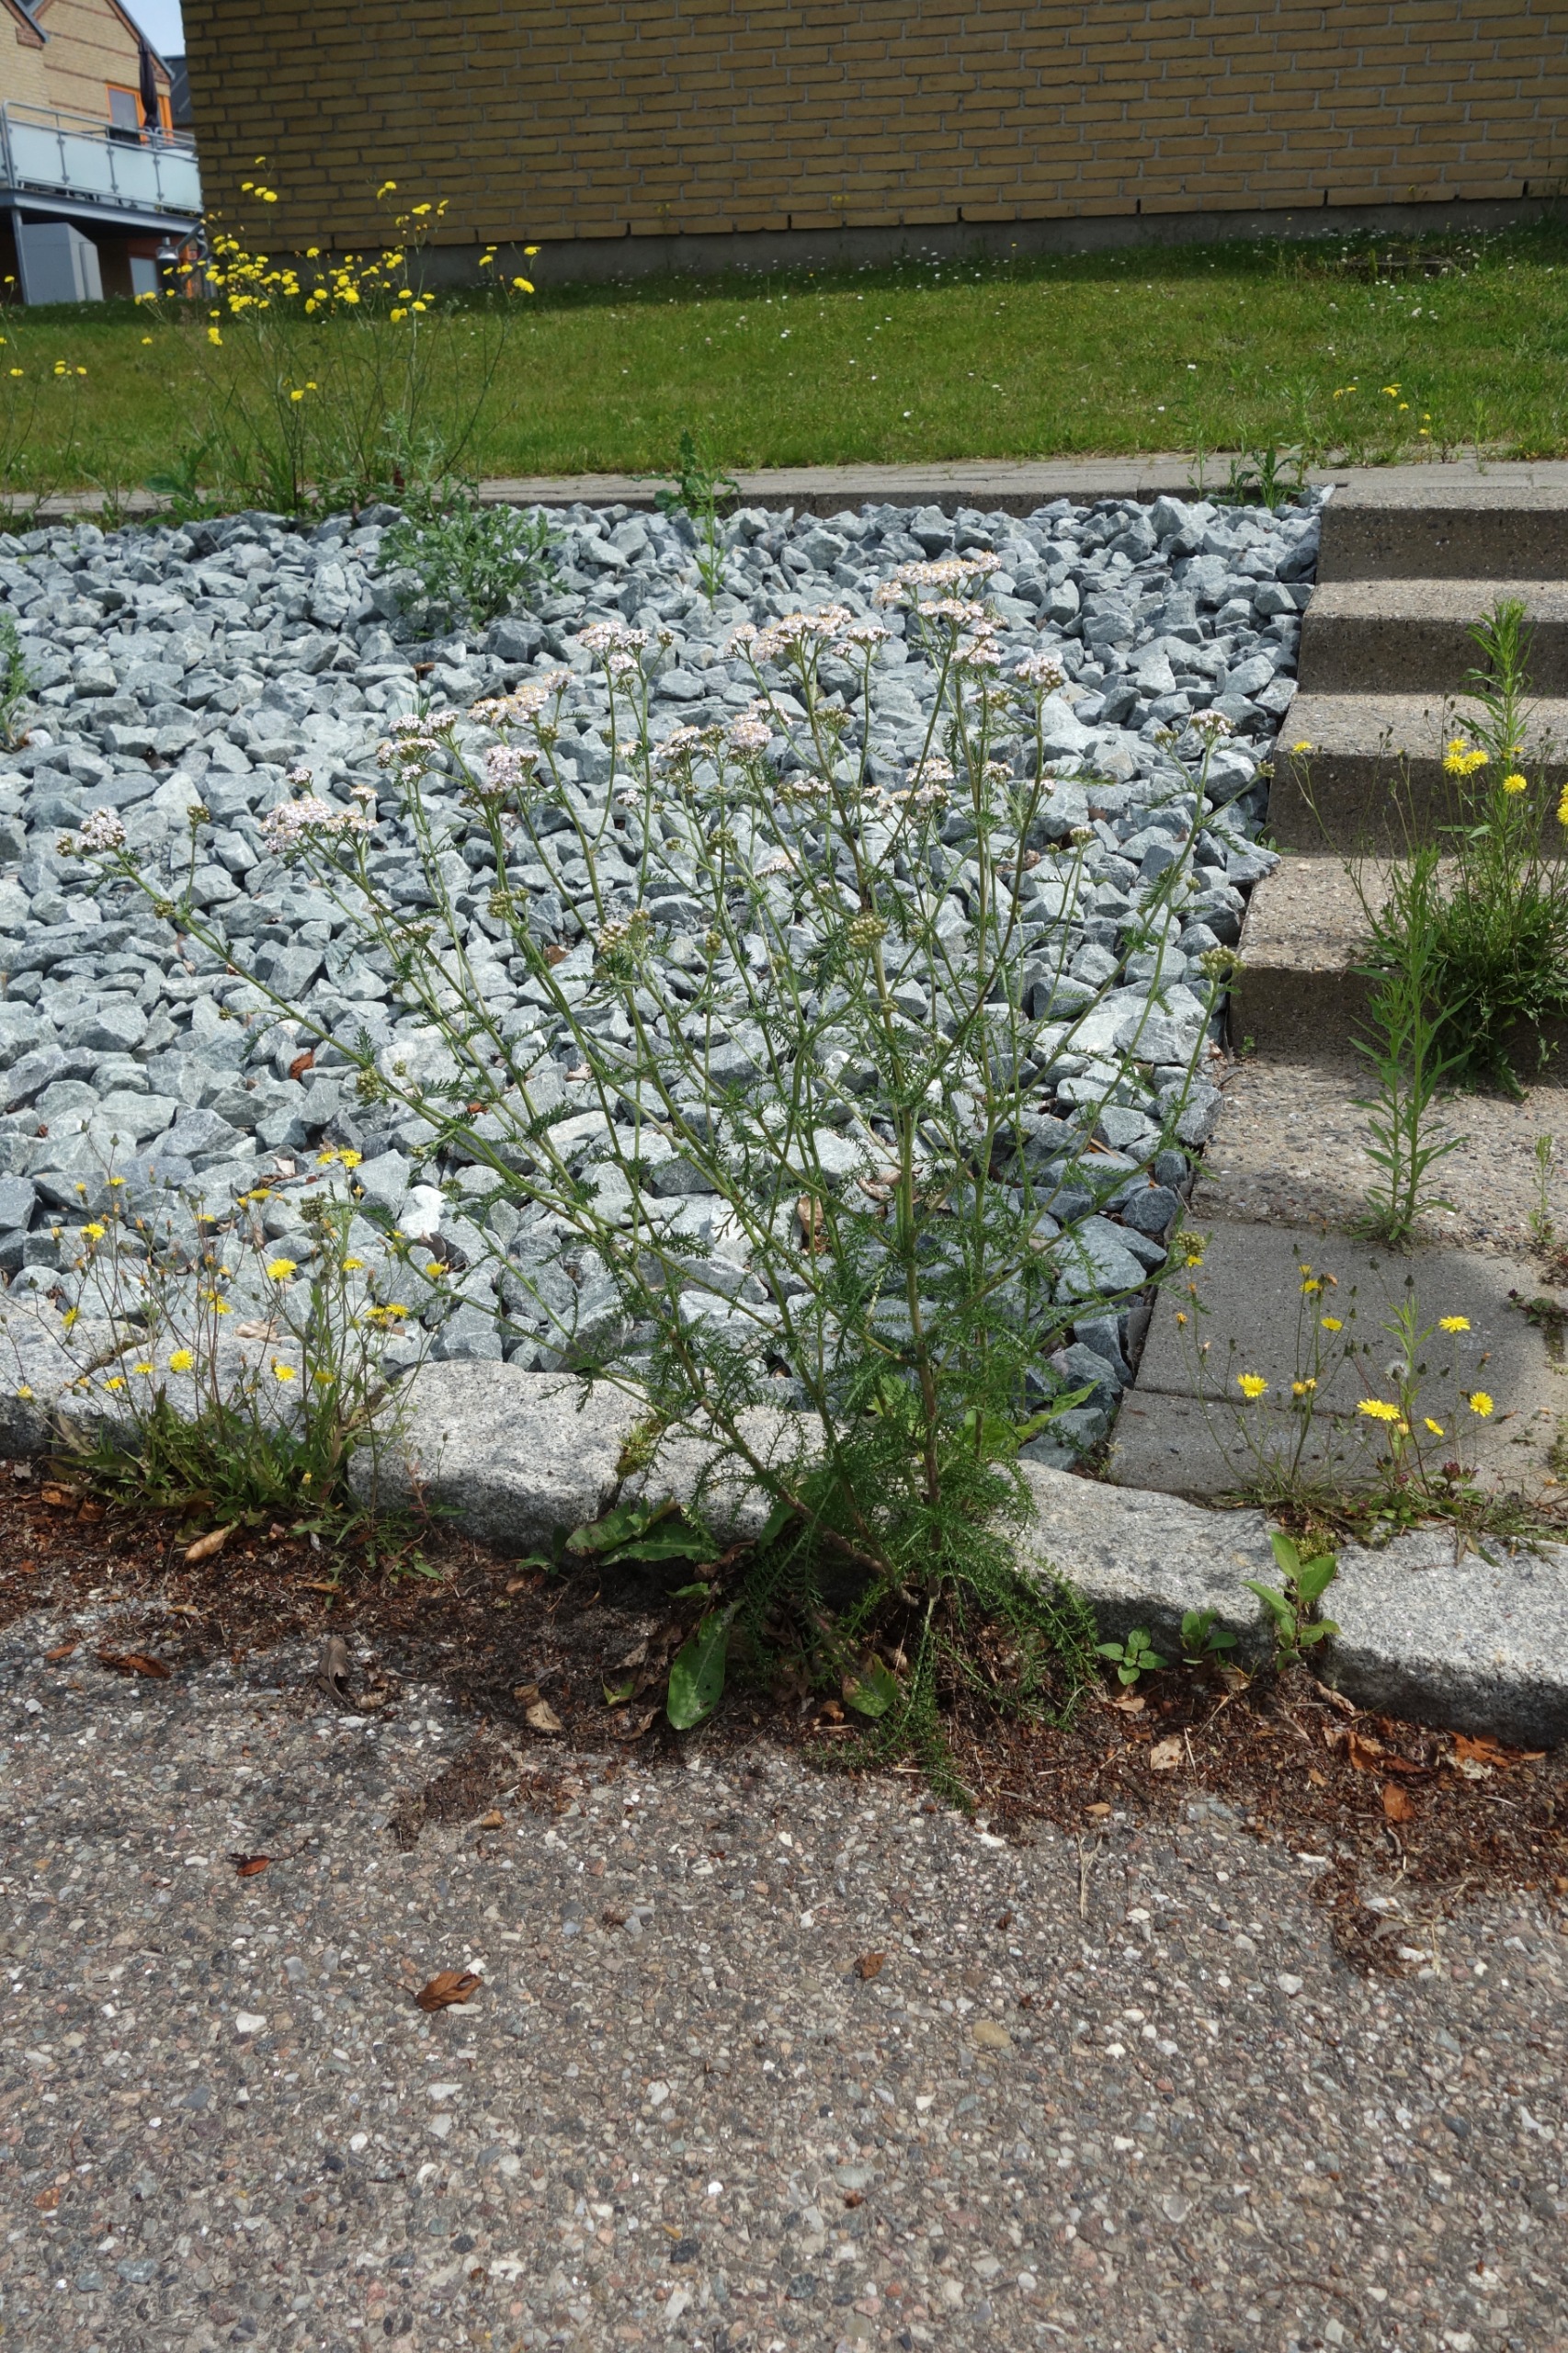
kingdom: Plantae
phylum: Tracheophyta
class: Magnoliopsida
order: Asterales
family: Asteraceae
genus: Achillea
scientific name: Achillea millefolium
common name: Almindelig røllike
